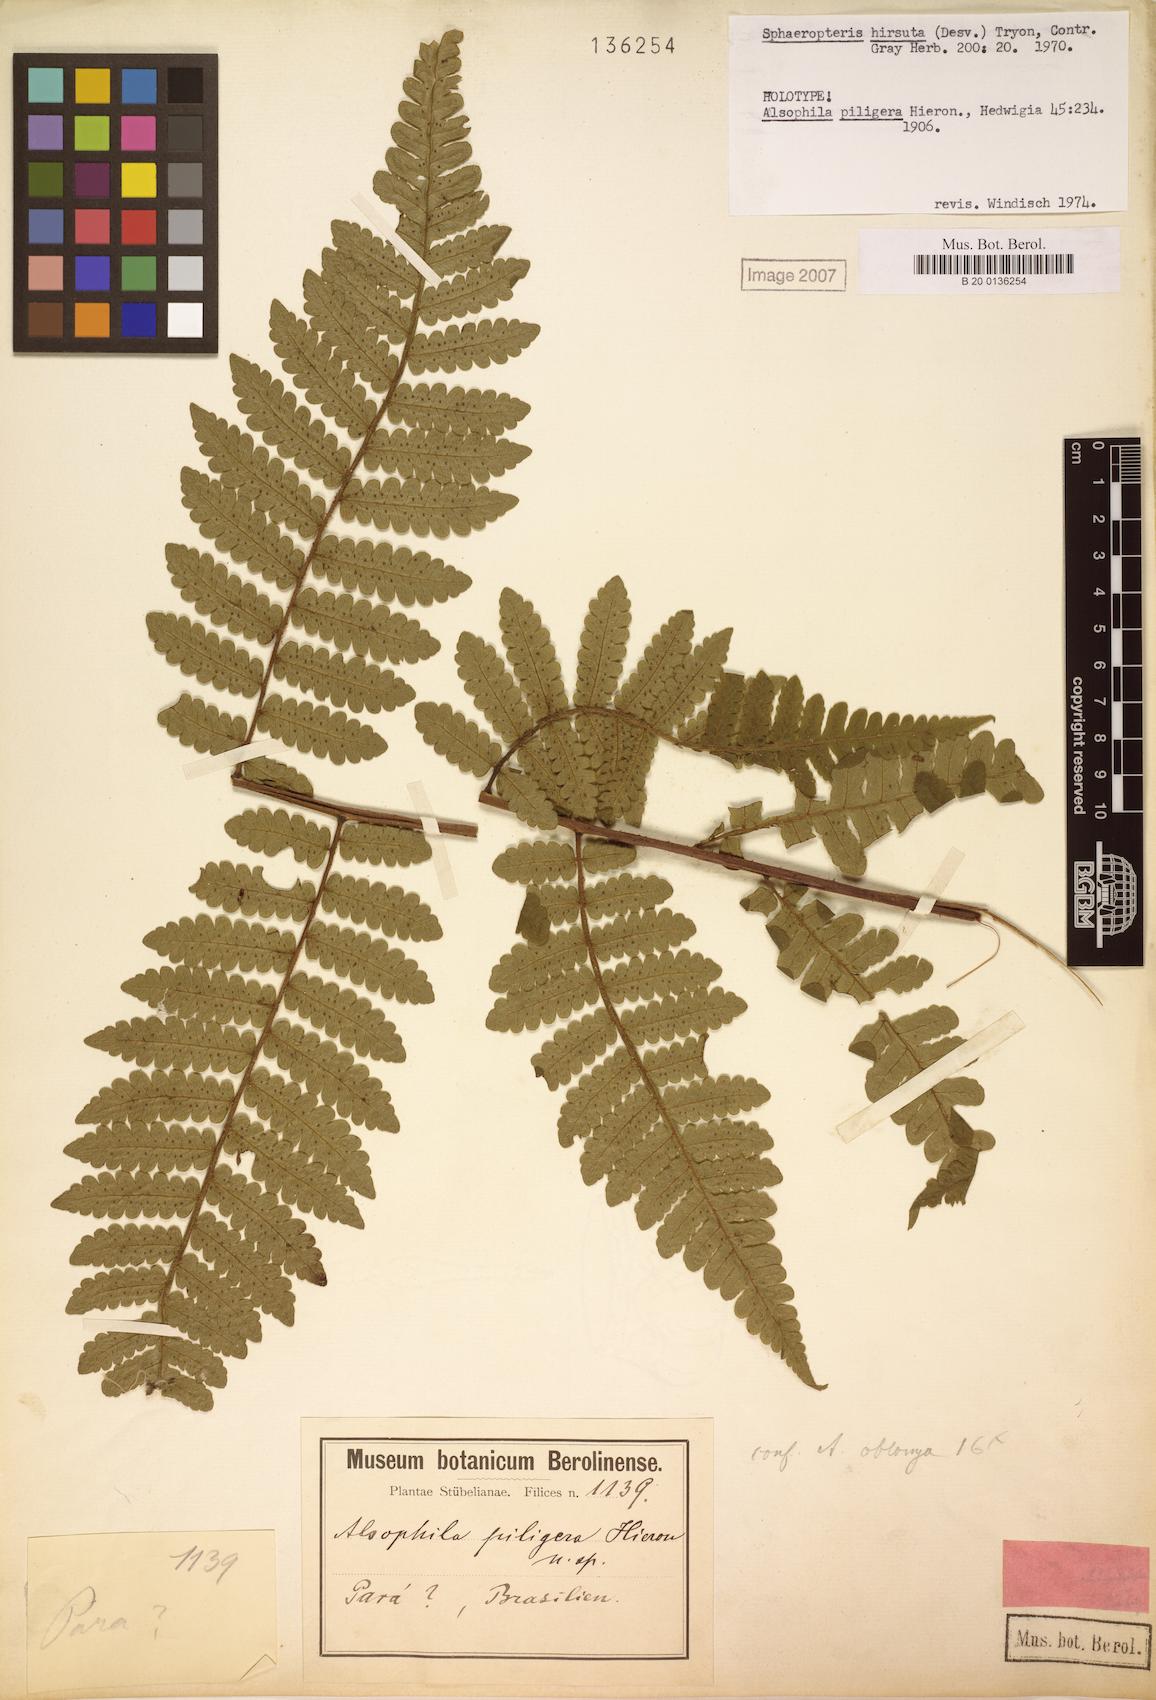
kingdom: Plantae
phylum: Tracheophyta
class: Polypodiopsida
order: Cyatheales
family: Cyatheaceae
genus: Cyathea
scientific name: Cyathea surinamensis
